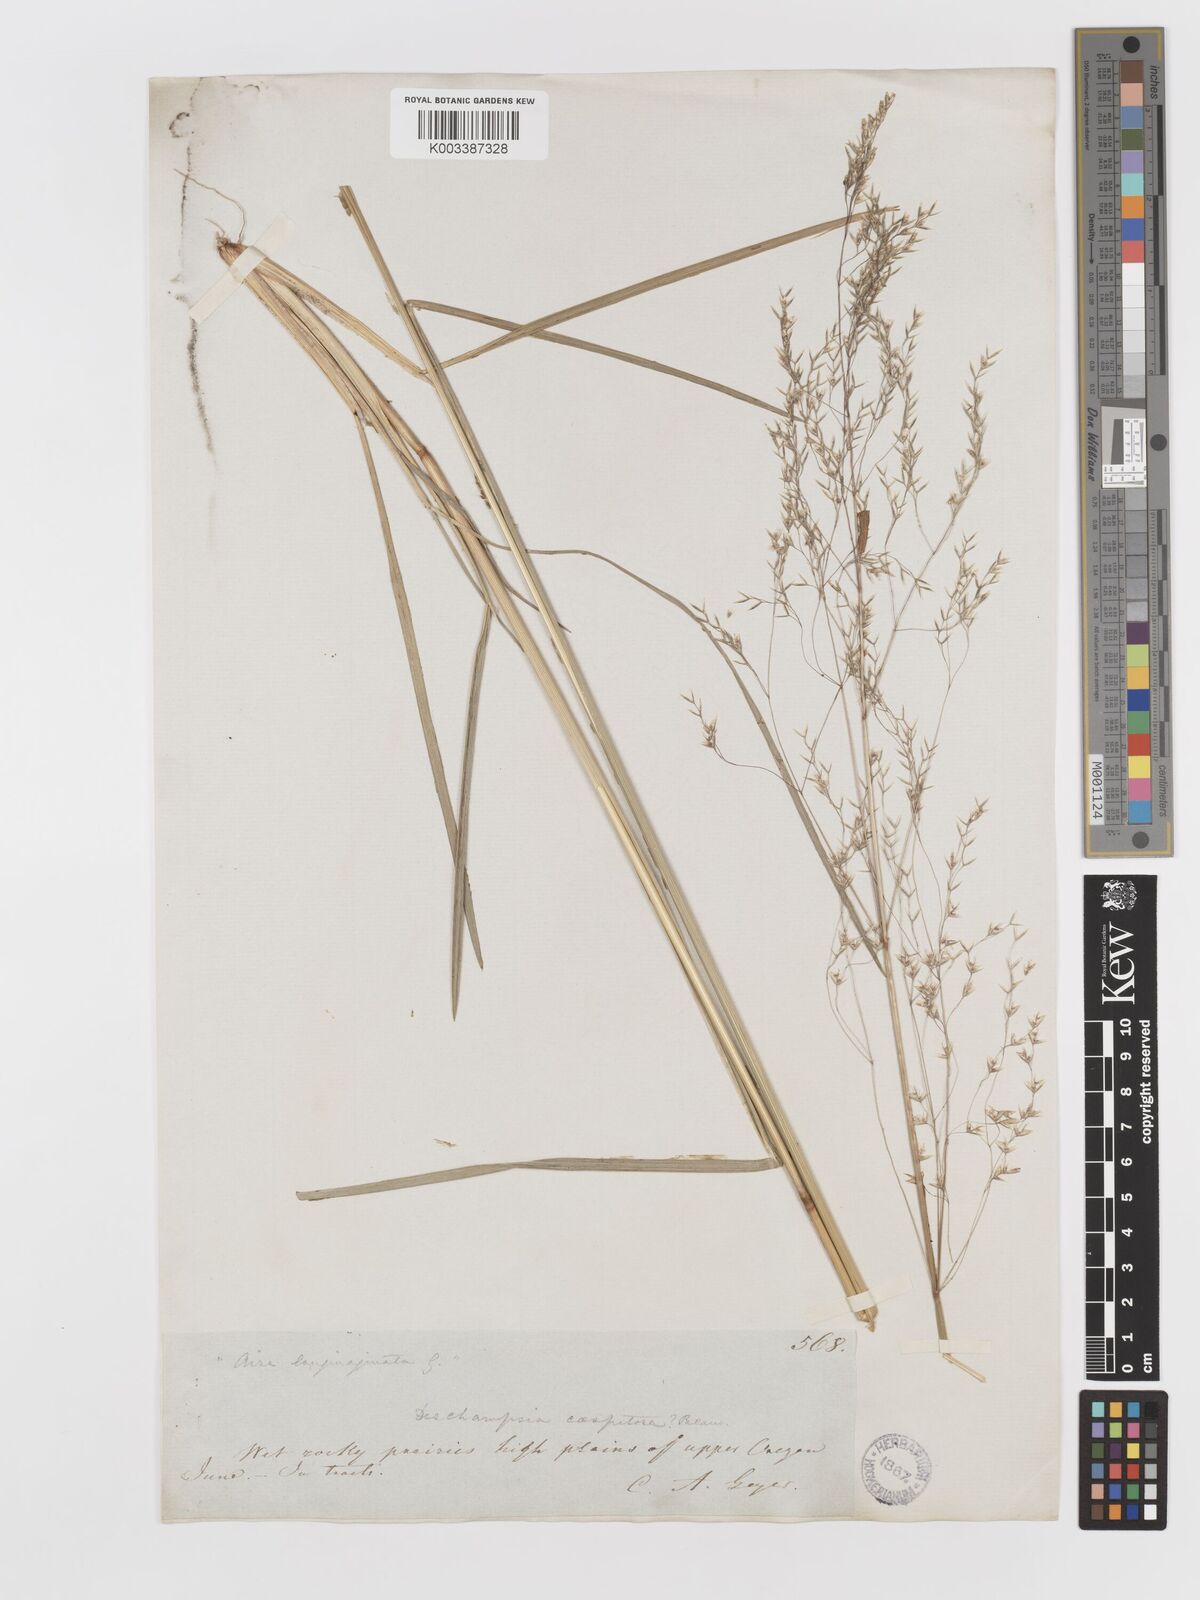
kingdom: Plantae
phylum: Tracheophyta
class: Liliopsida
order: Poales
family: Poaceae
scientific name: Poaceae
